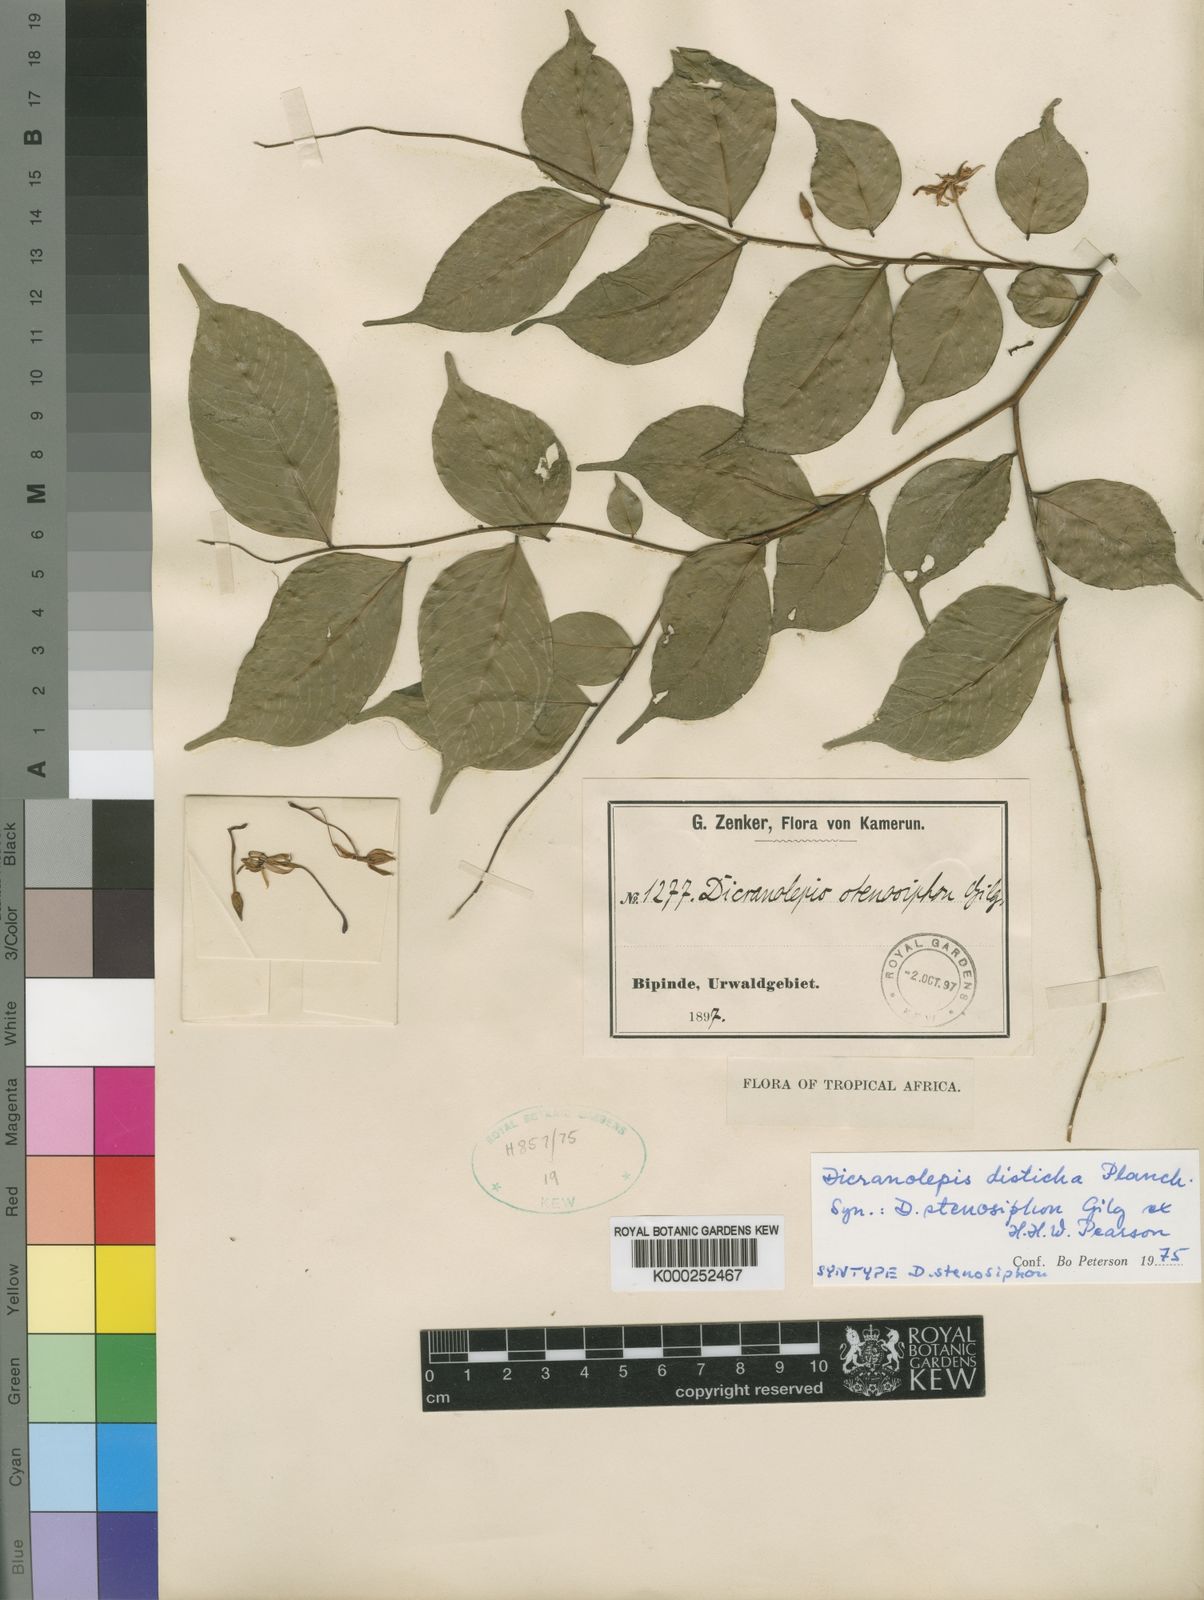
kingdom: Plantae
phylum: Tracheophyta
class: Magnoliopsida
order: Malvales
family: Thymelaeaceae
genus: Dicranolepis
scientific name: Dicranolepis disticha
